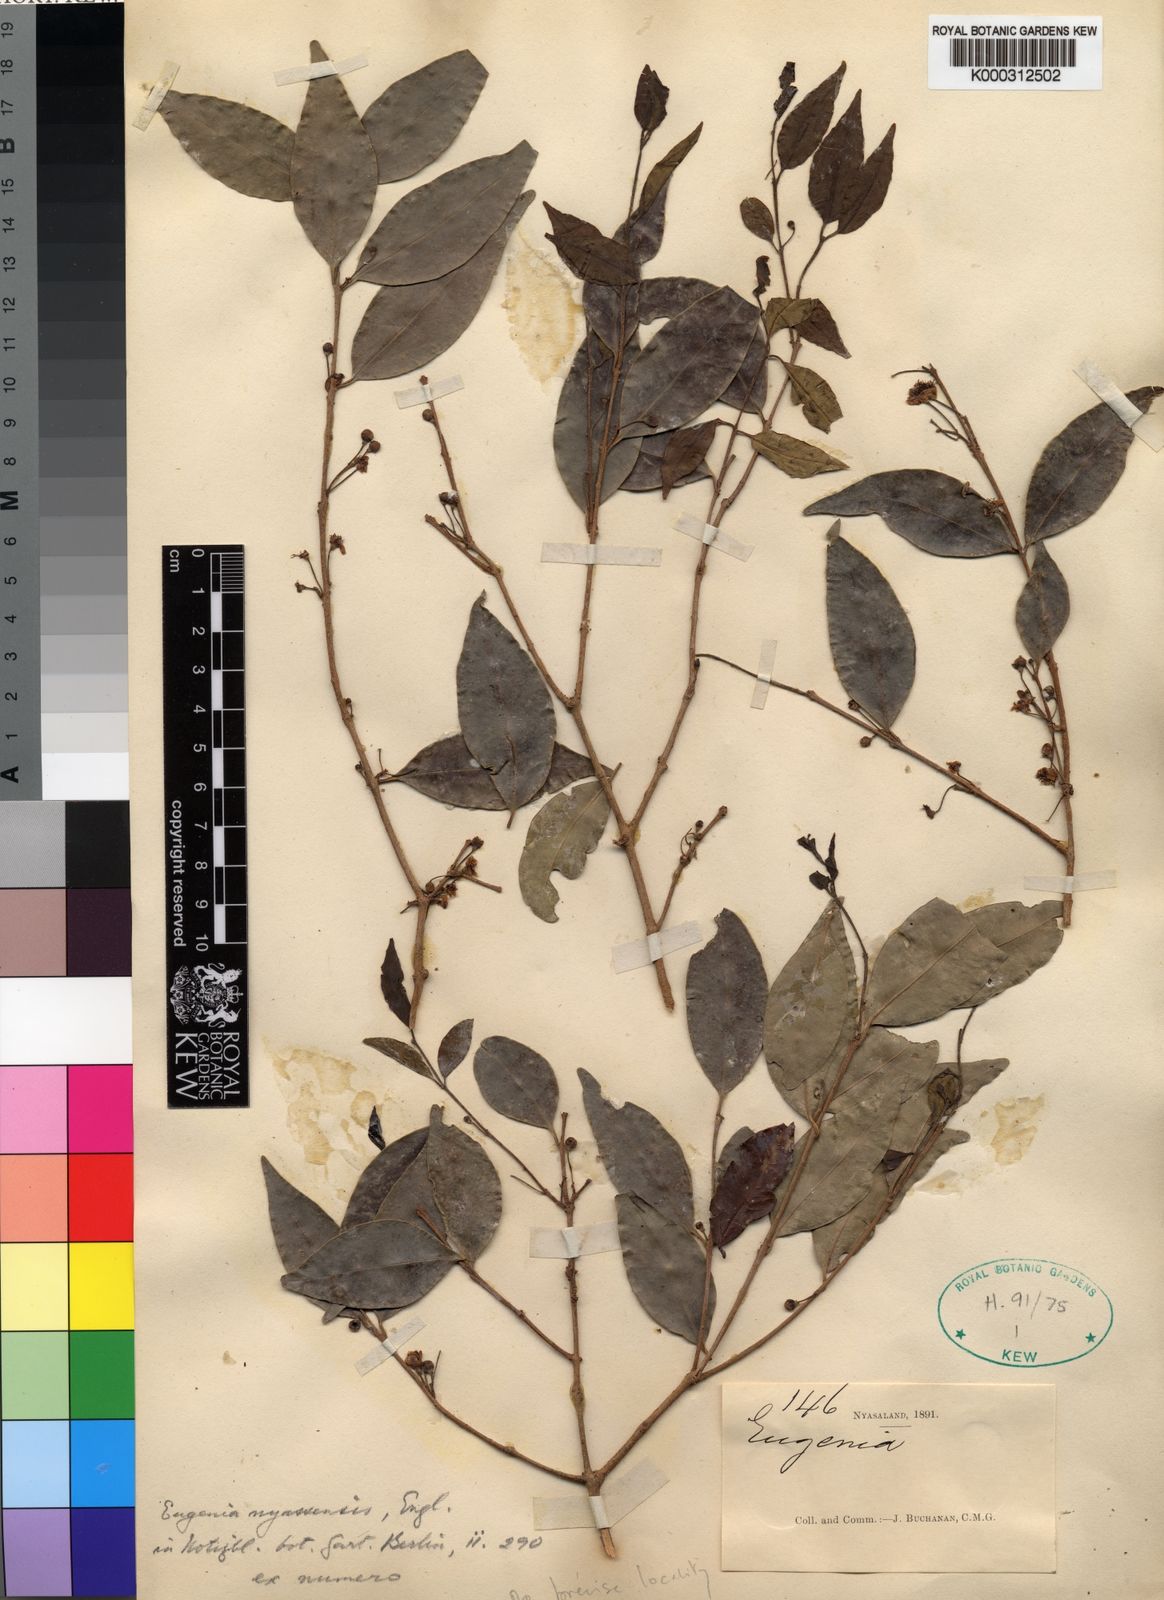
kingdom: Plantae
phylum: Tracheophyta
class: Magnoliopsida
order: Myrtales
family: Myrtaceae
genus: Eugenia
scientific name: Eugenia capensis
